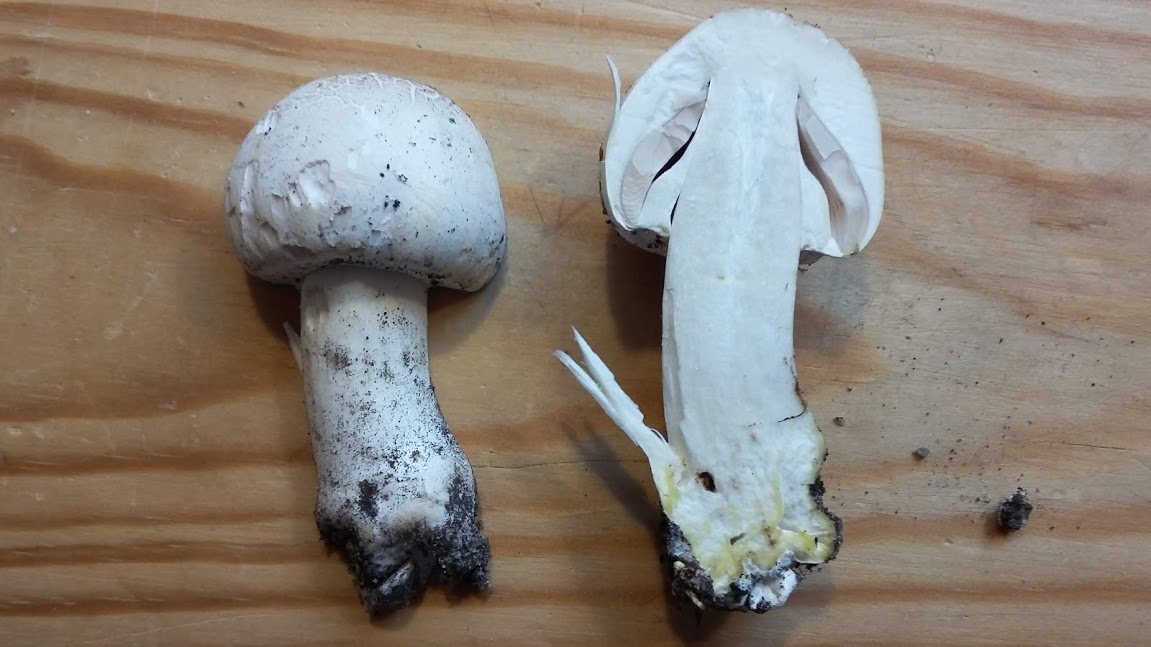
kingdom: Fungi
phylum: Basidiomycota
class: Agaricomycetes
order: Agaricales
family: Agaricaceae
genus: Agaricus
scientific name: Agaricus xanthodermus
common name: karbol-champignon
